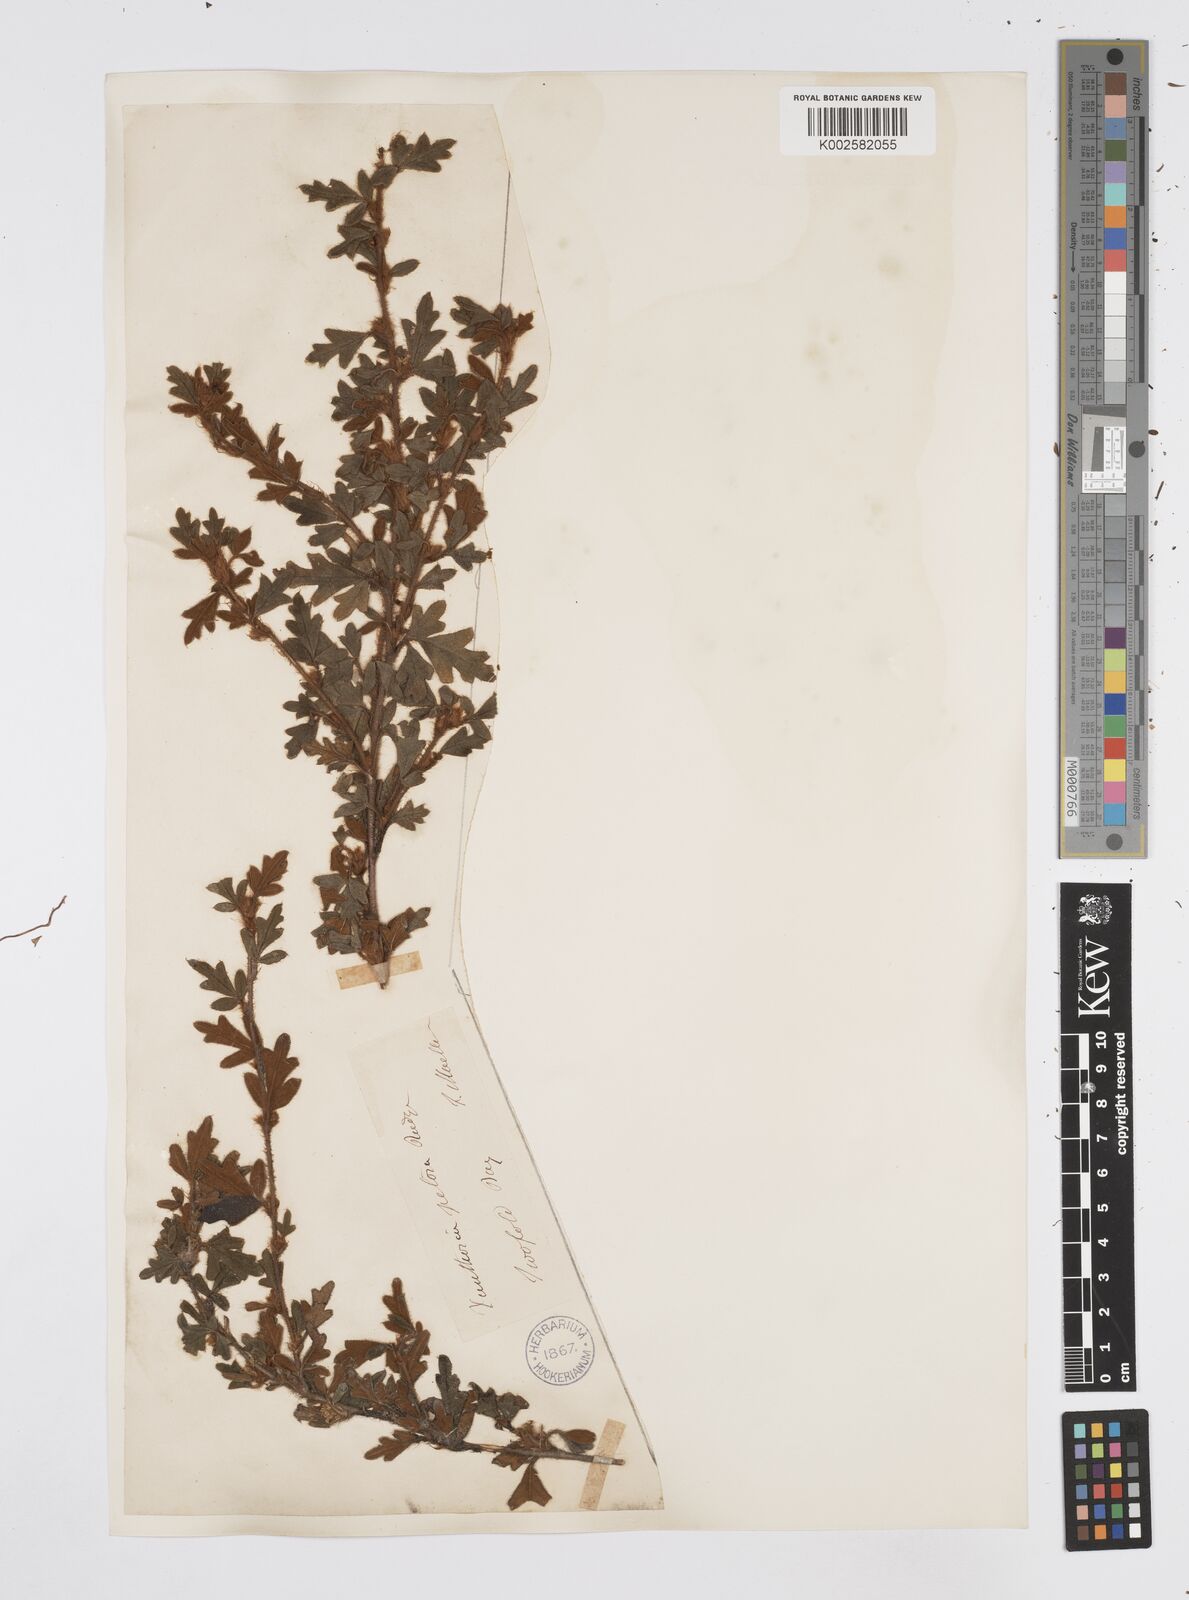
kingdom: Plantae
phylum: Tracheophyta
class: Magnoliopsida
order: Apiales
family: Apiaceae
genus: Xanthosia
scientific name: Xanthosia pilosa
